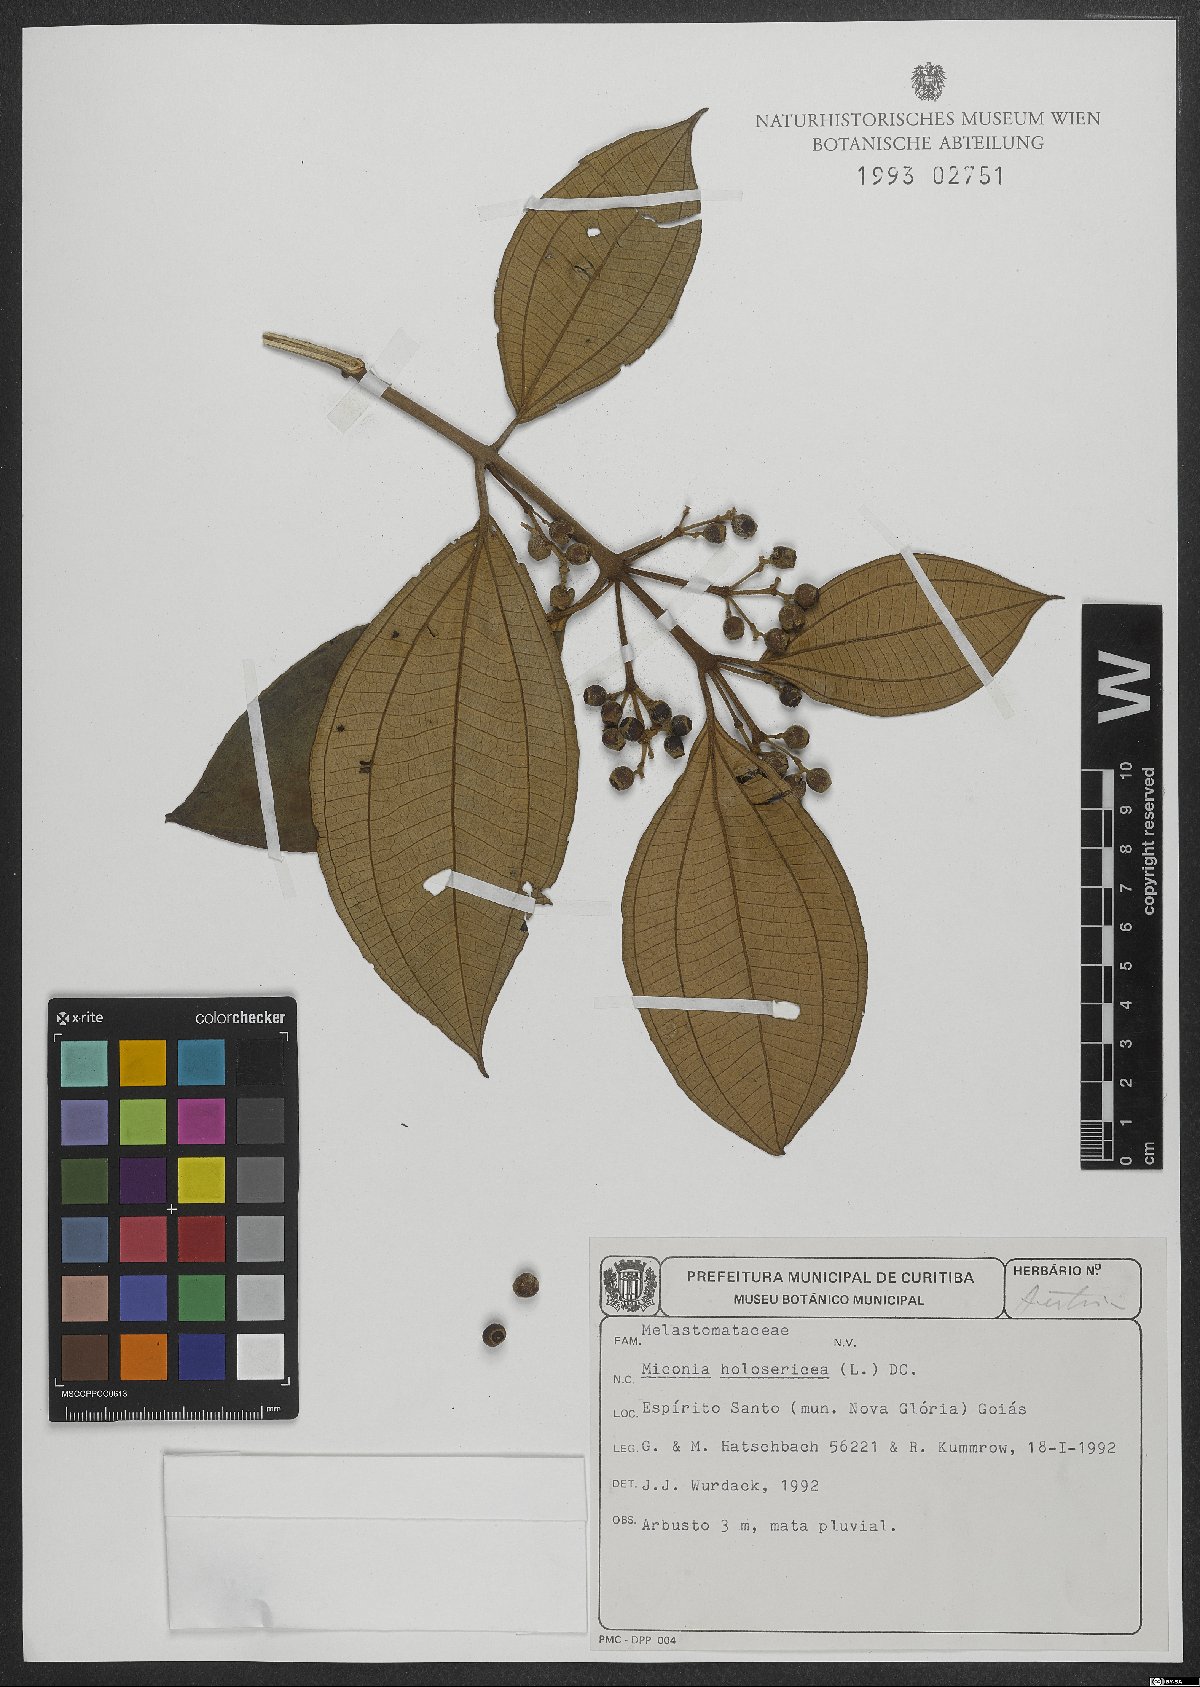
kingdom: Plantae
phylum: Tracheophyta
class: Magnoliopsida
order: Myrtales
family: Melastomataceae
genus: Miconia
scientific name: Miconia holosericea
